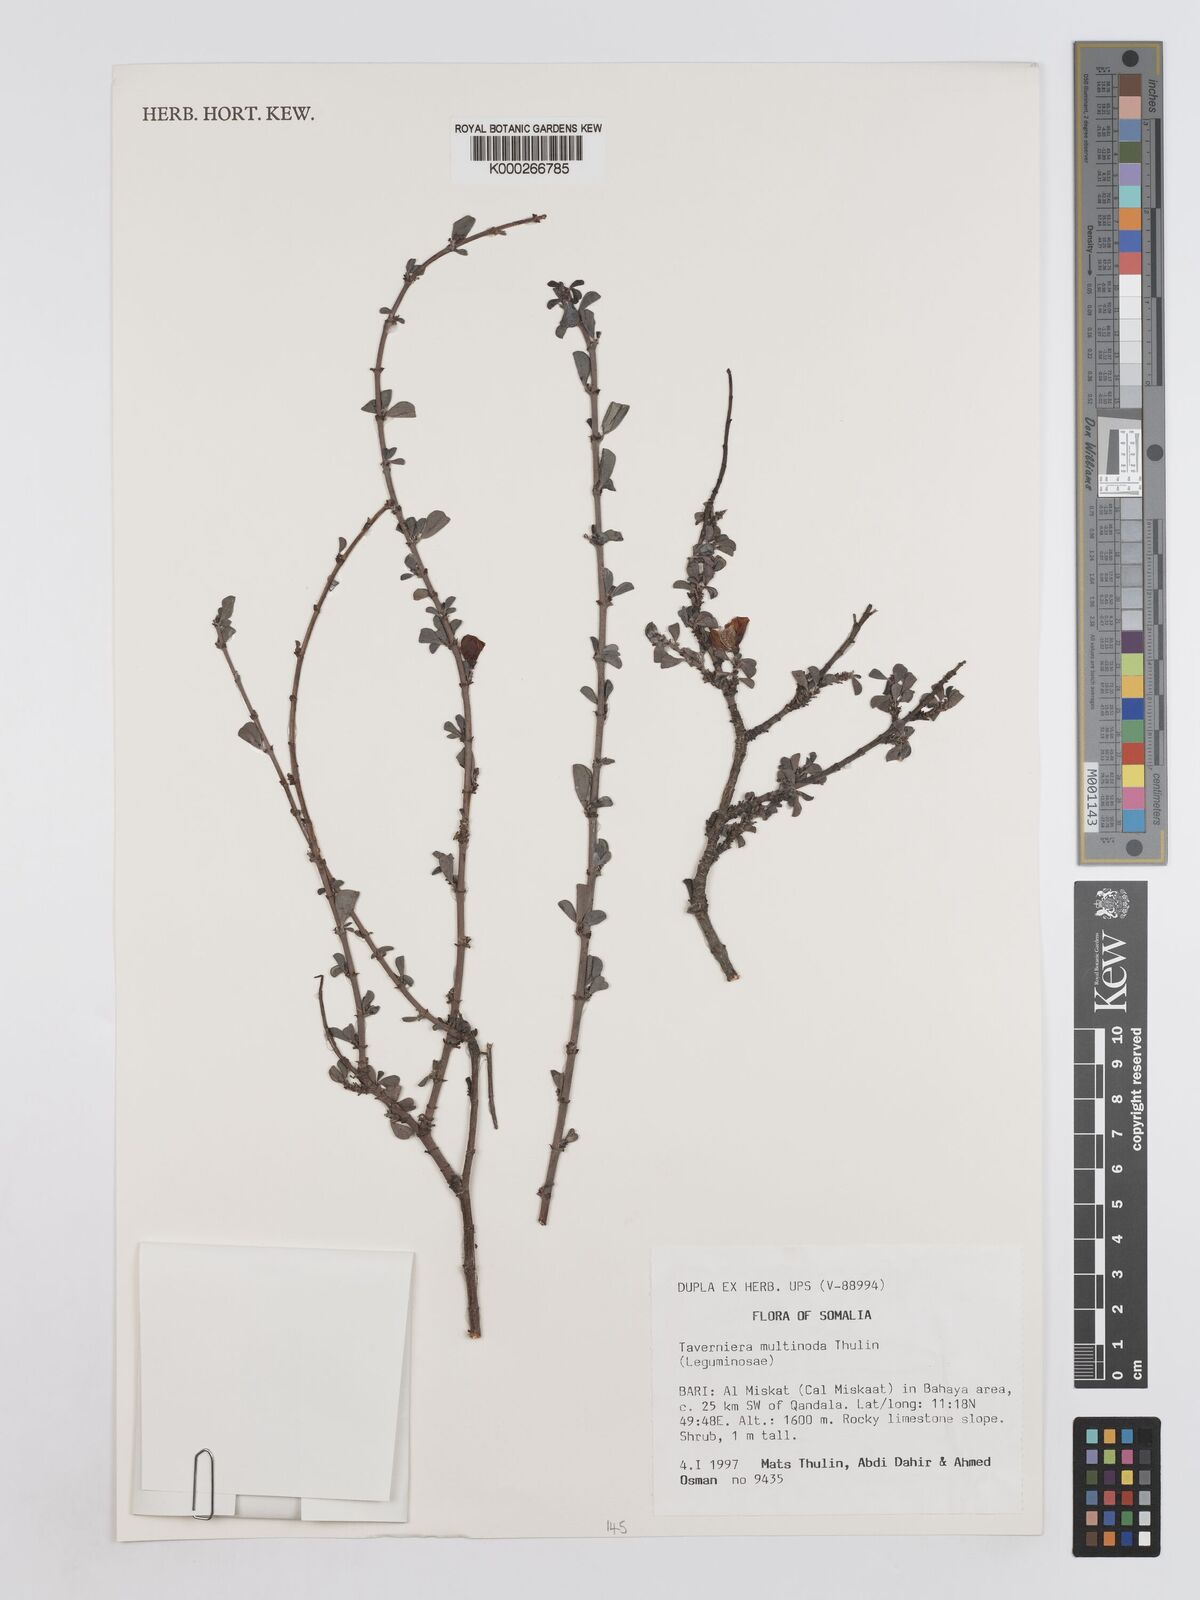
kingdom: Plantae
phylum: Tracheophyta
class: Magnoliopsida
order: Fabales
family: Fabaceae
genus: Taverniera
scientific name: Taverniera multinoda
